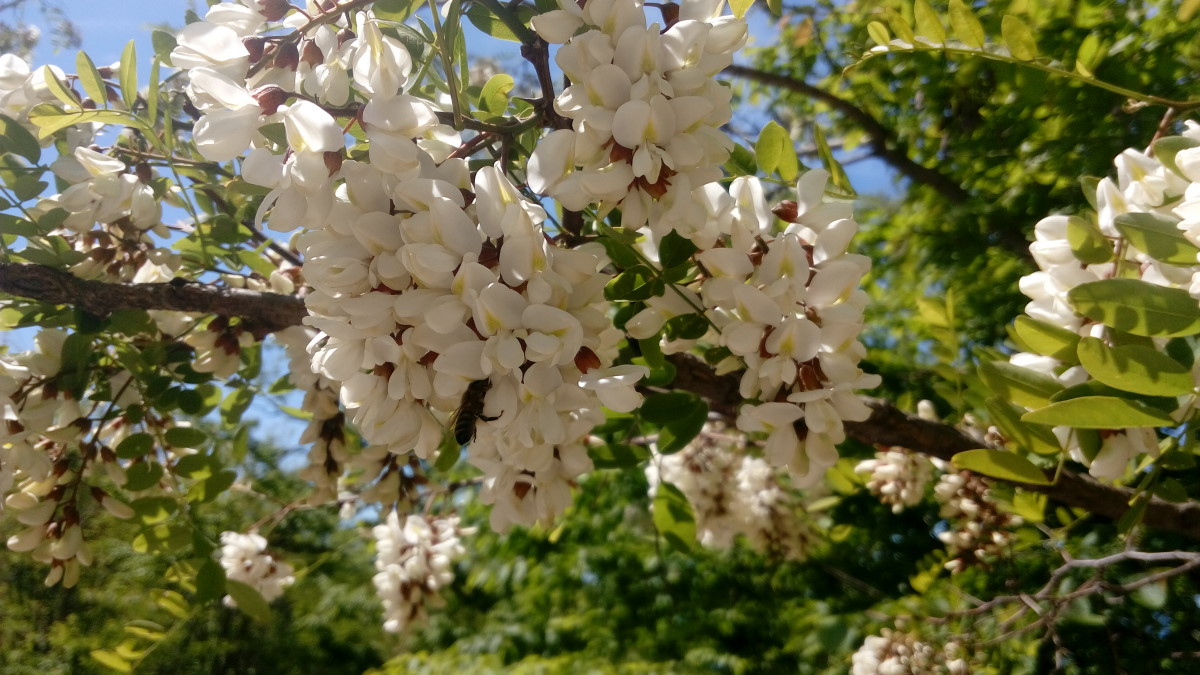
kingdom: Plantae
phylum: Tracheophyta
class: Magnoliopsida
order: Fabales
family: Fabaceae
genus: Robinia
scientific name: Robinia pseudoacacia
